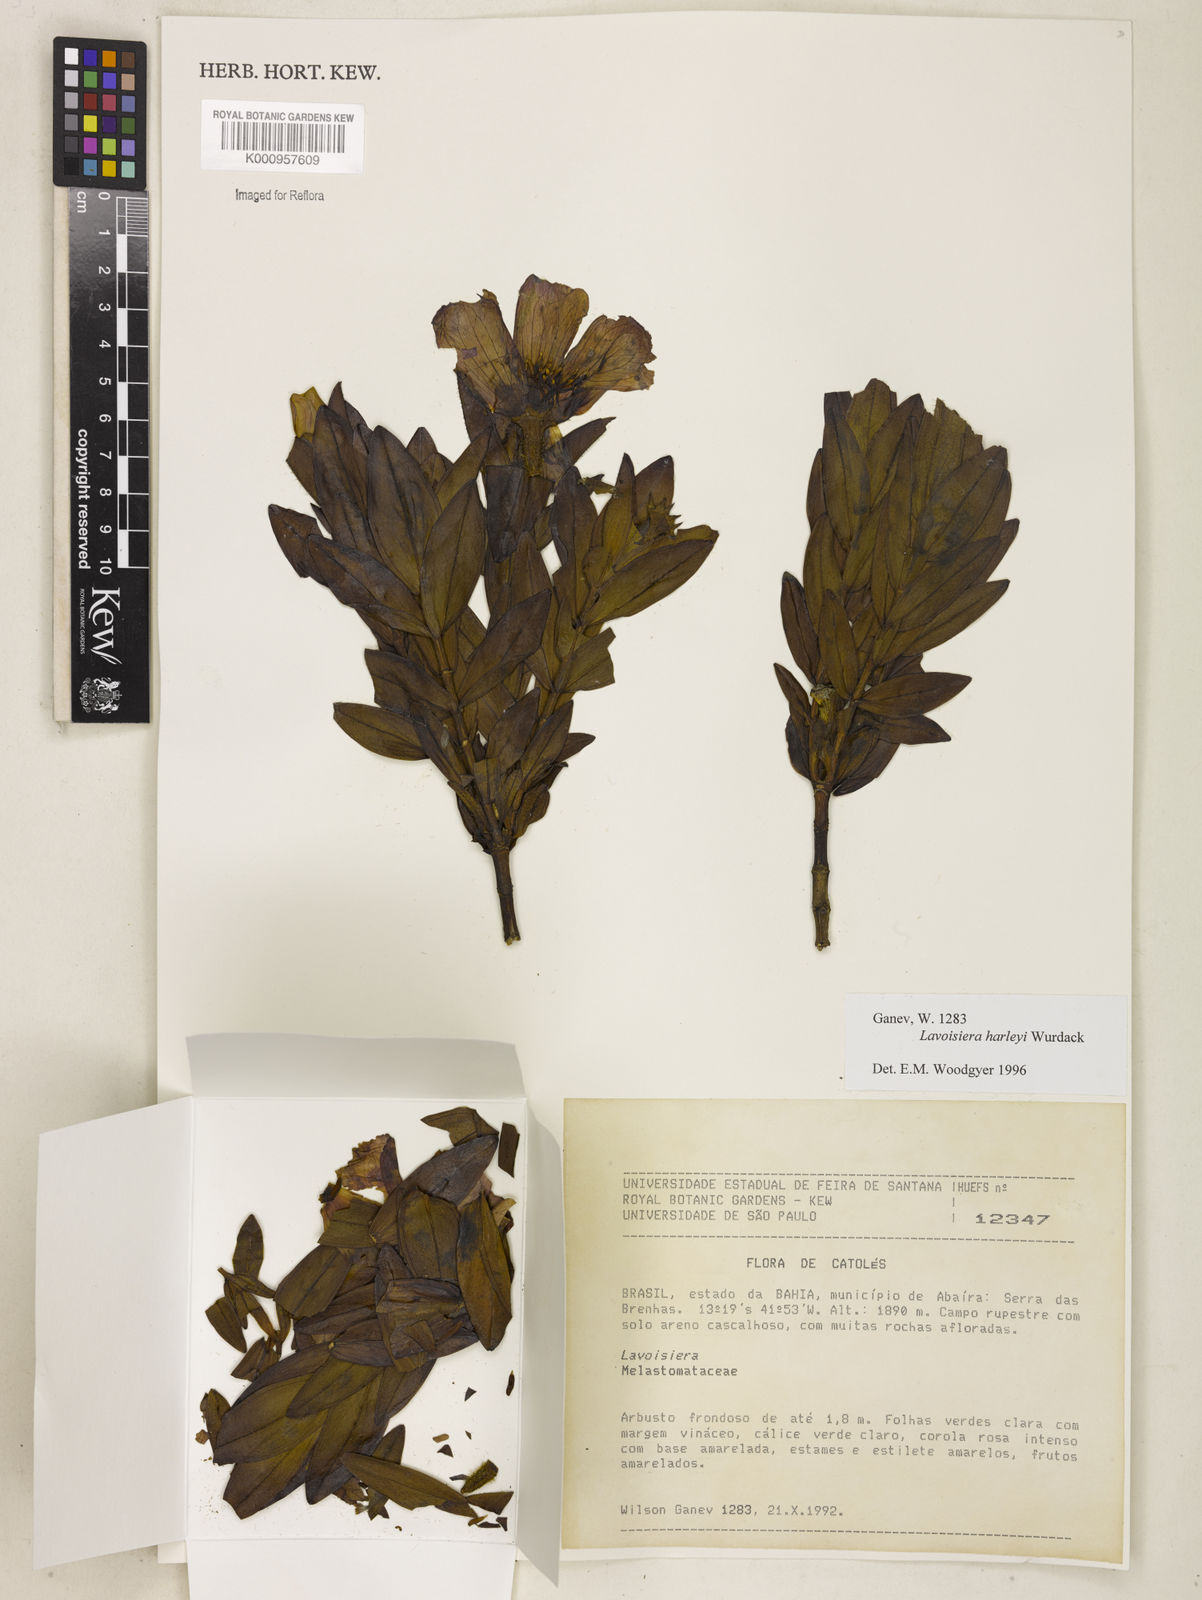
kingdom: Plantae
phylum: Tracheophyta
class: Magnoliopsida
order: Myrtales
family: Melastomataceae
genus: Microlicia
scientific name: Microlicia raymondii
